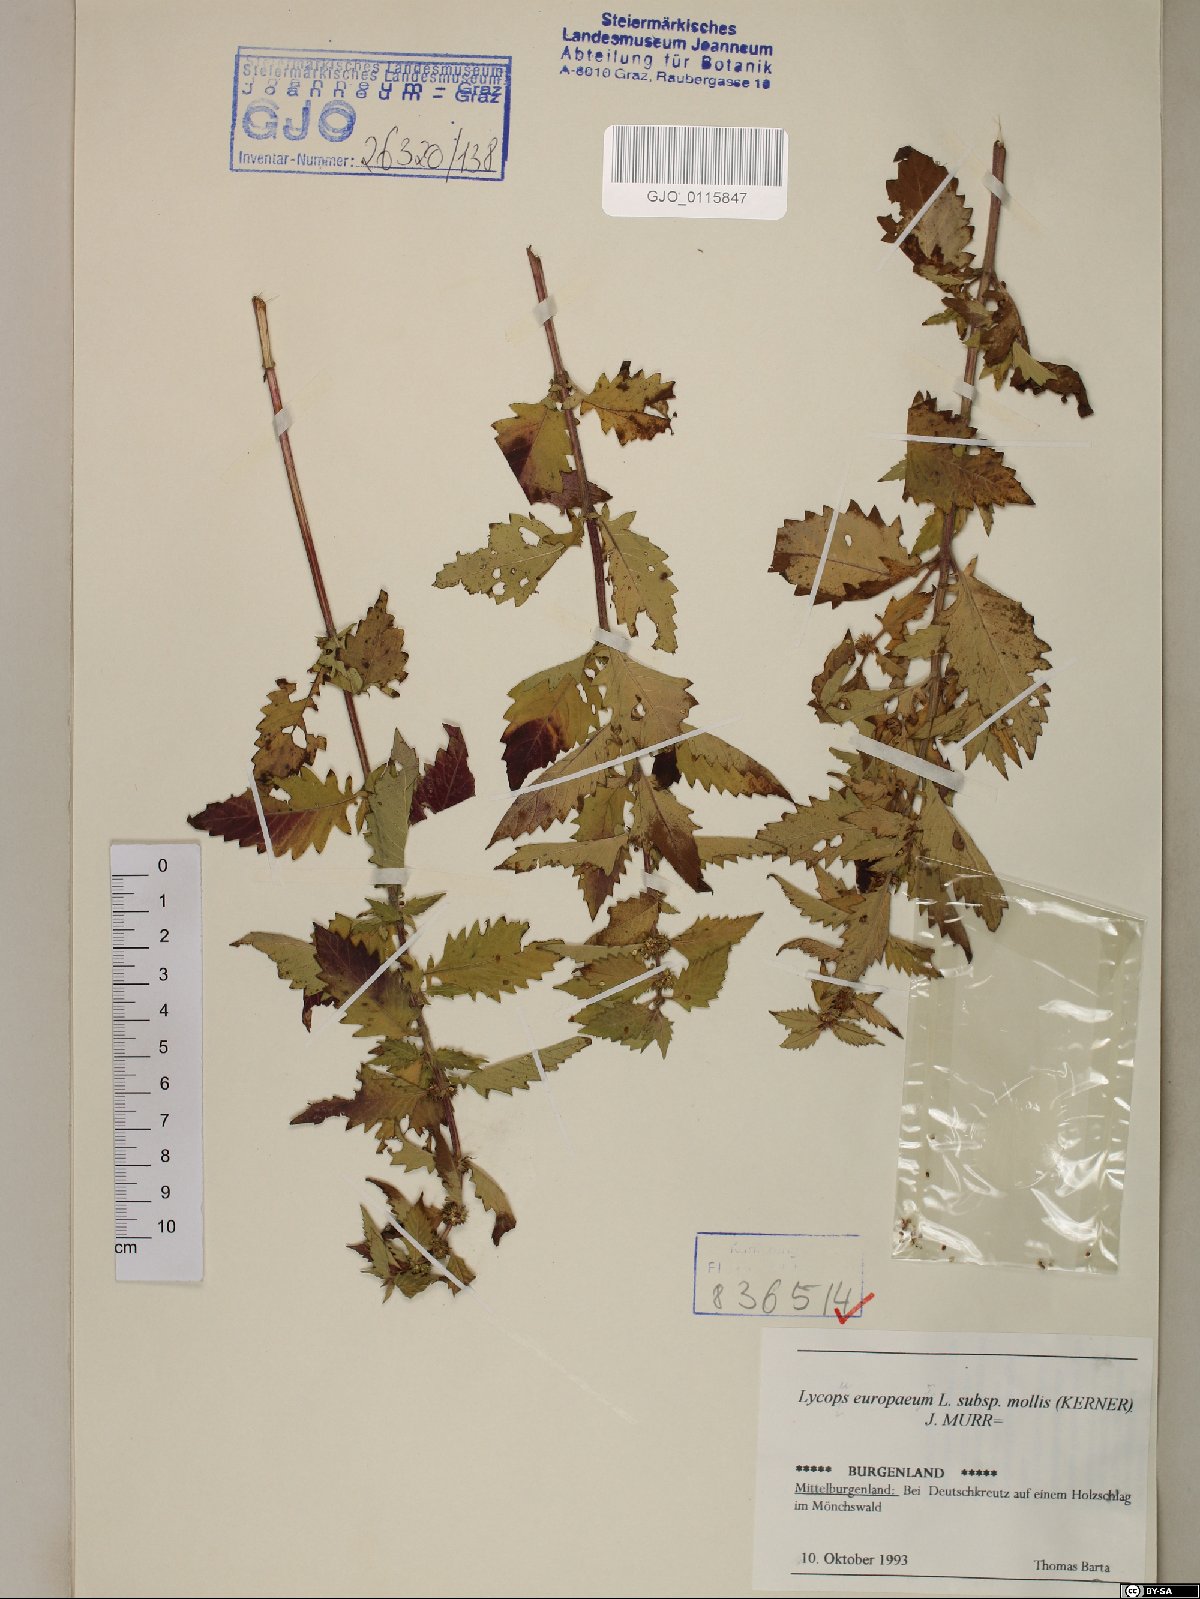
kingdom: Plantae
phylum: Tracheophyta
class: Magnoliopsida
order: Lamiales
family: Lamiaceae
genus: Lycopus
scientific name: Lycopus europaeus
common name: European bugleweed
